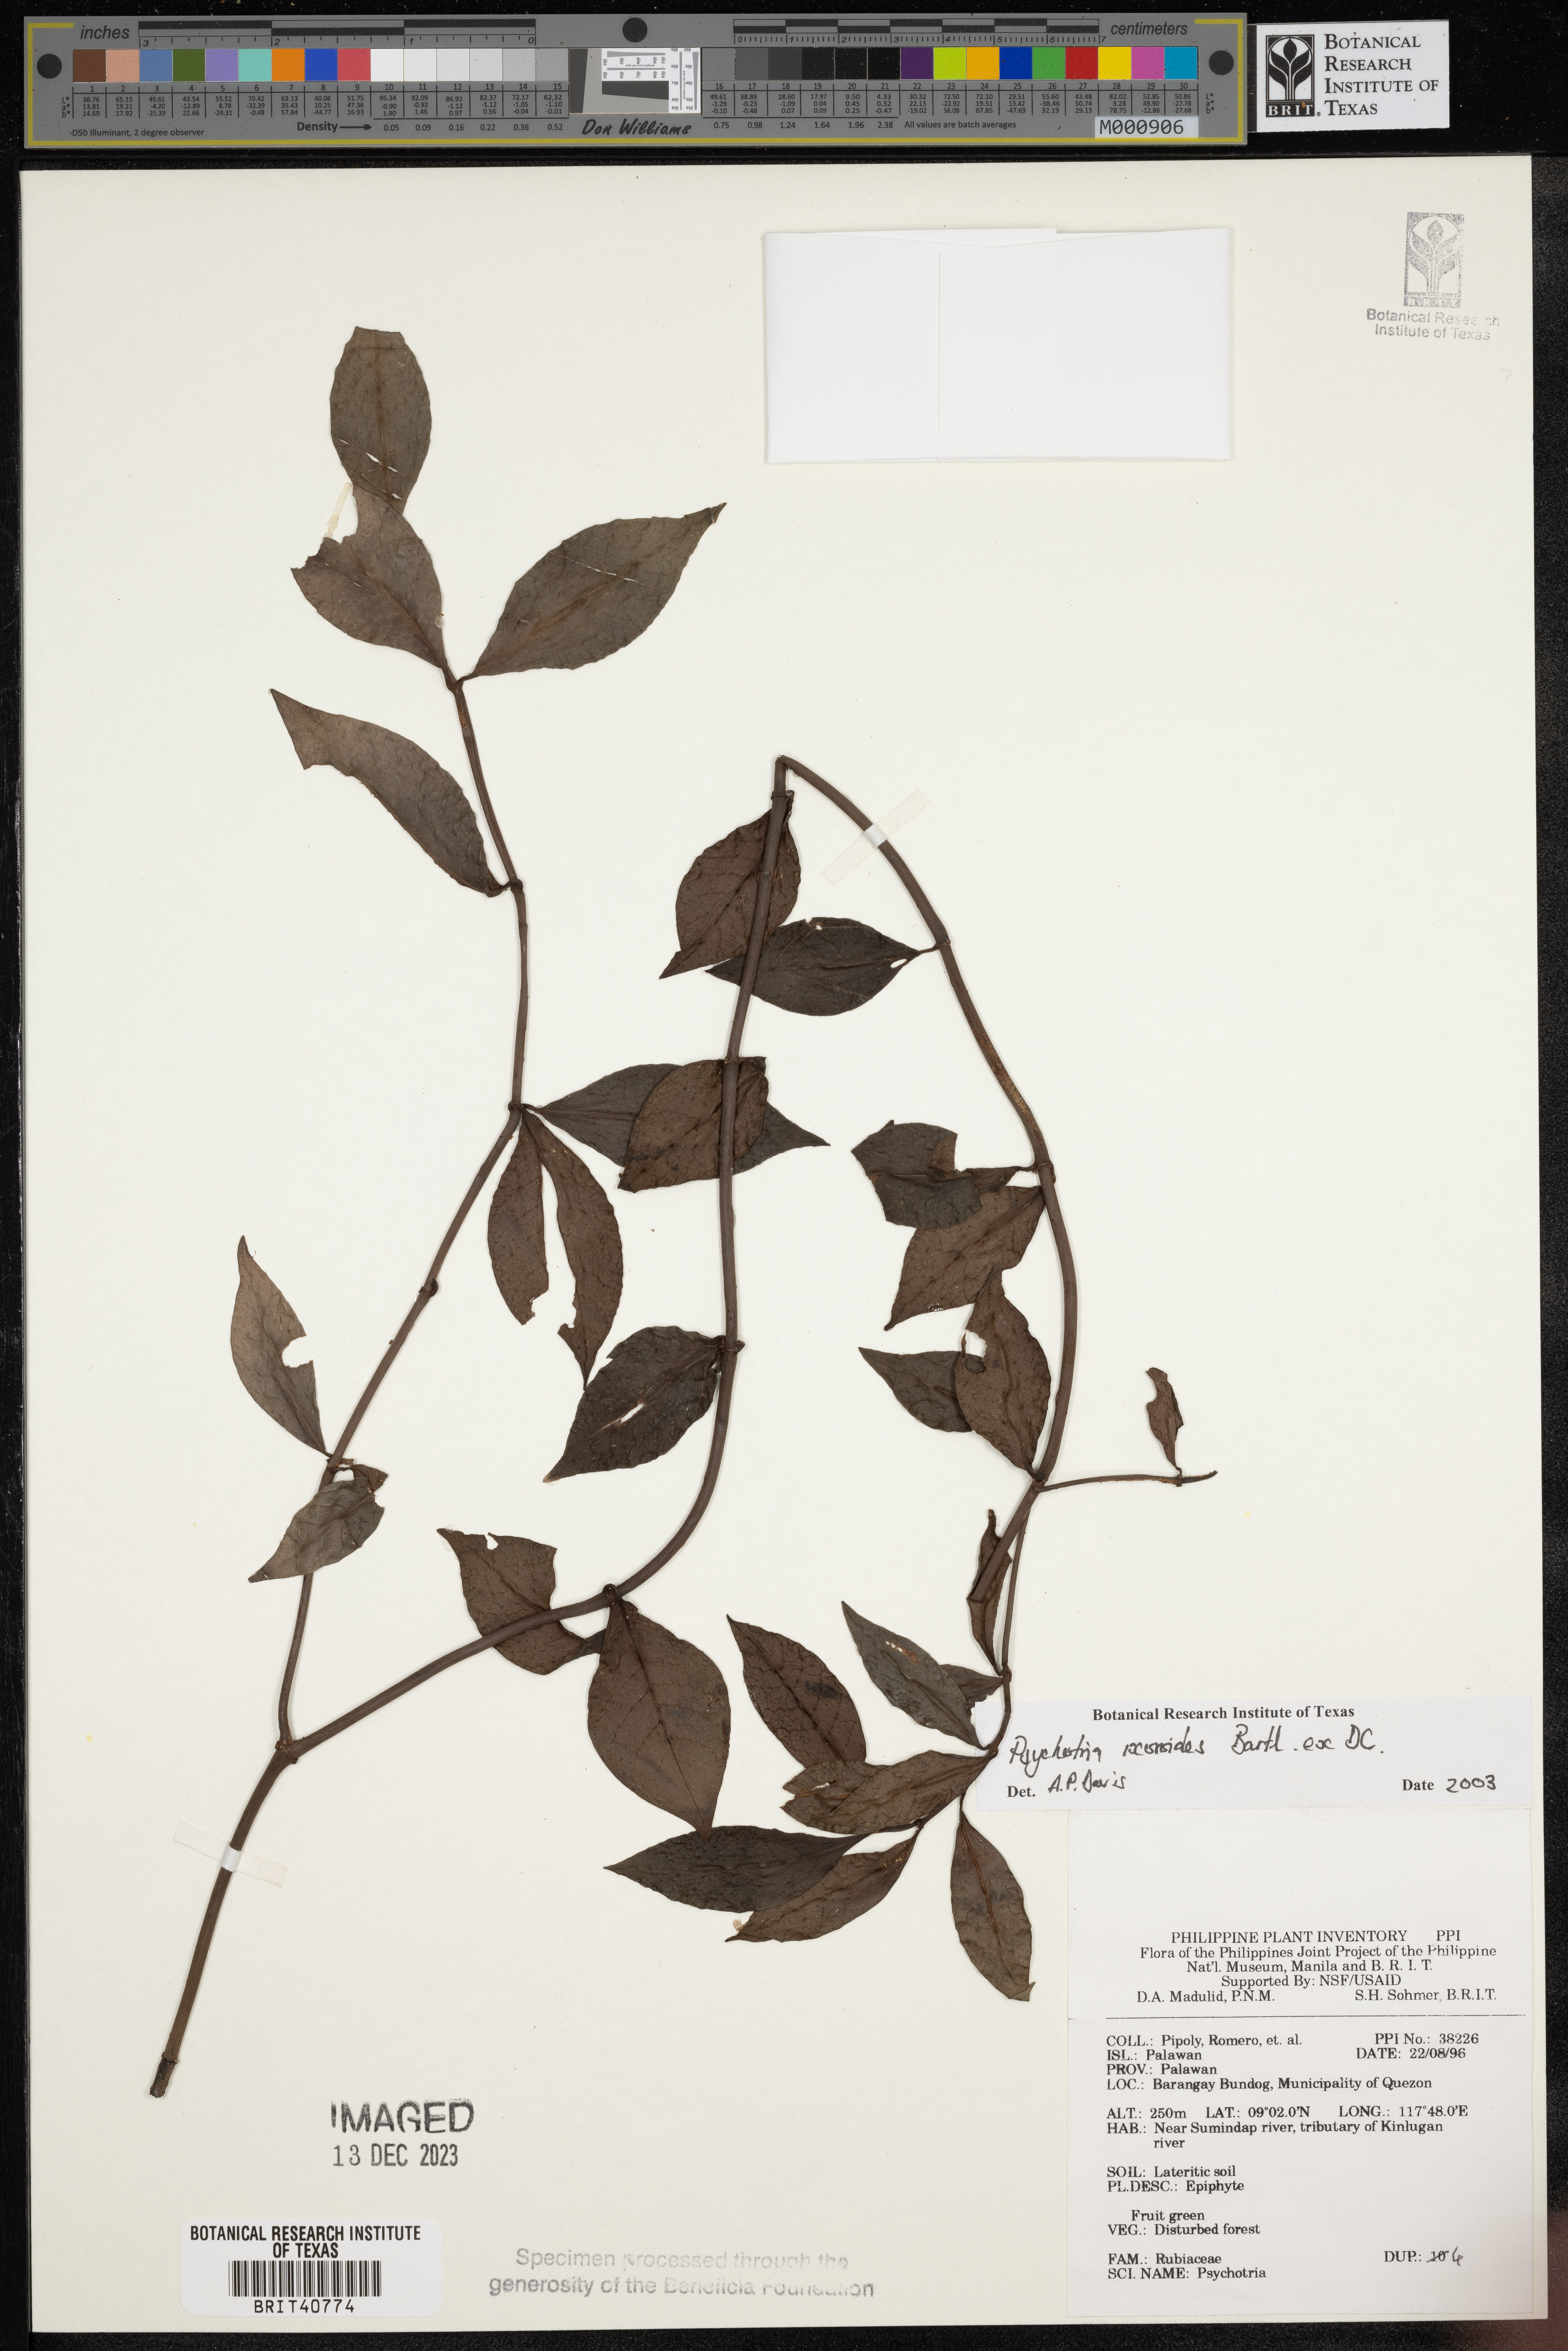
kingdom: Plantae
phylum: Tracheophyta
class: Magnoliopsida
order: Gentianales
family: Rubiaceae
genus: Psychotria
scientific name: Psychotria ixoroides
